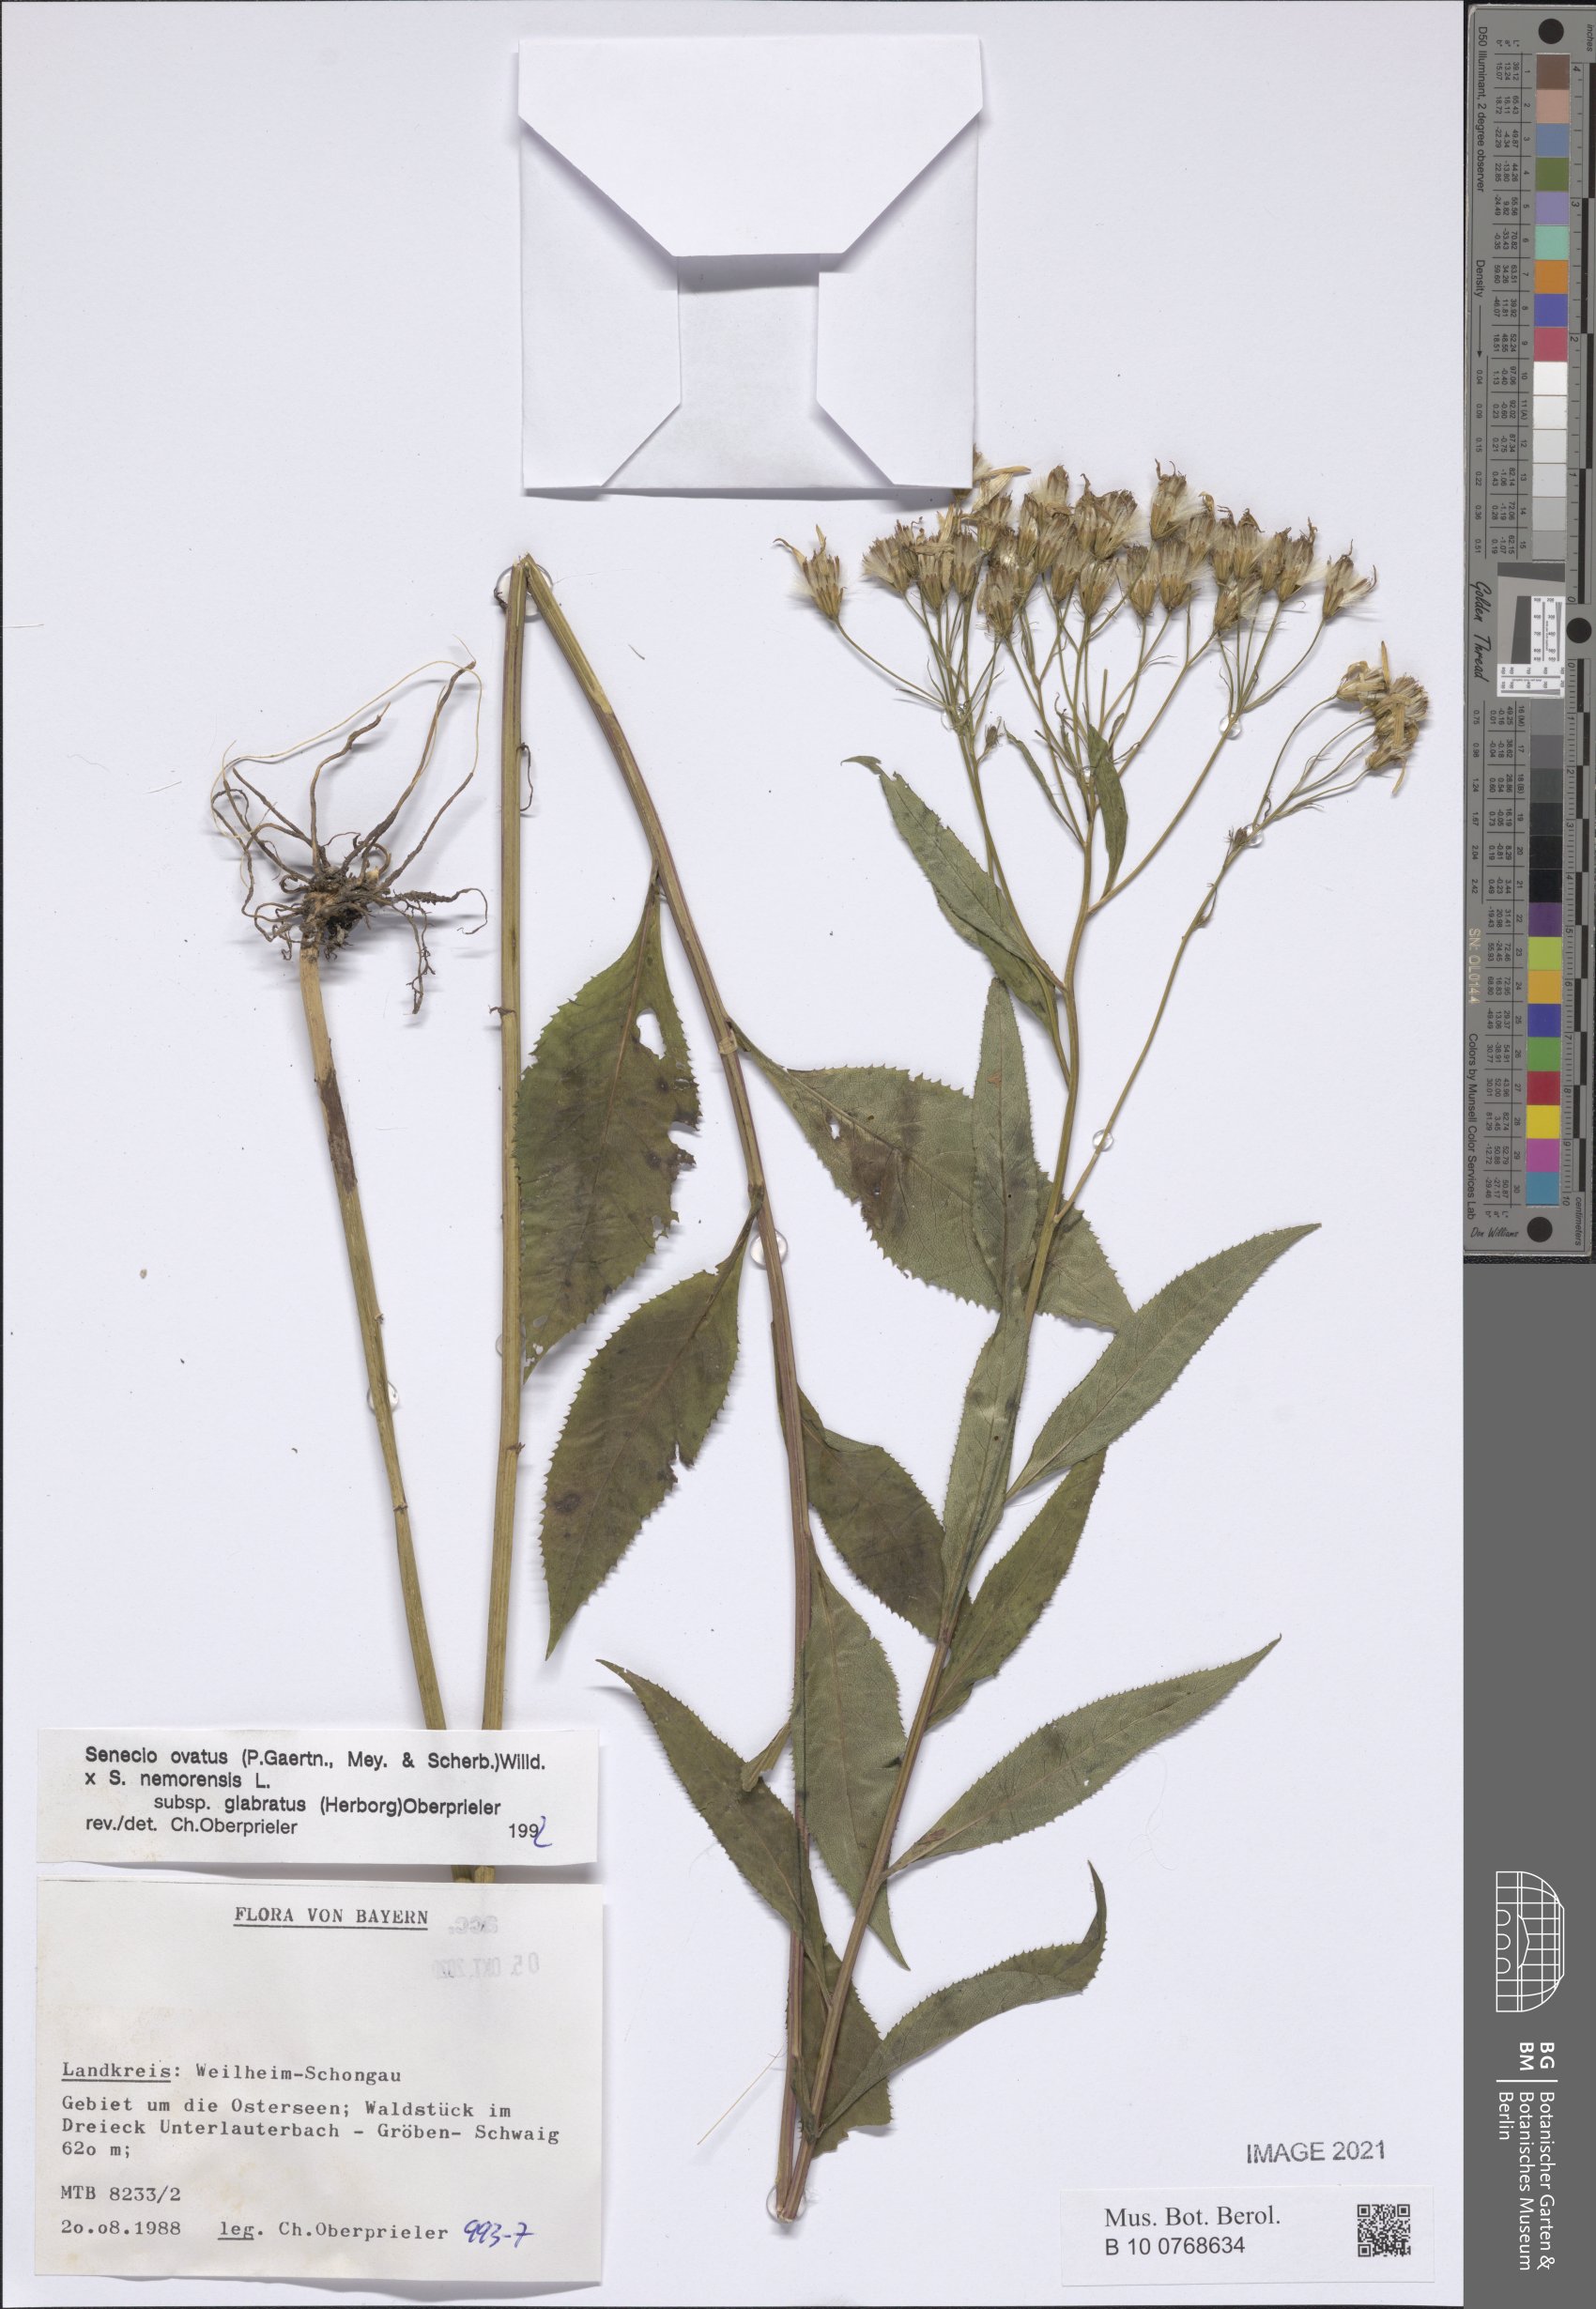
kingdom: Plantae
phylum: Tracheophyta
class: Magnoliopsida
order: Asterales
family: Asteraceae
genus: Senecio
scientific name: Senecio ovatus
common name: Wood ragwort
